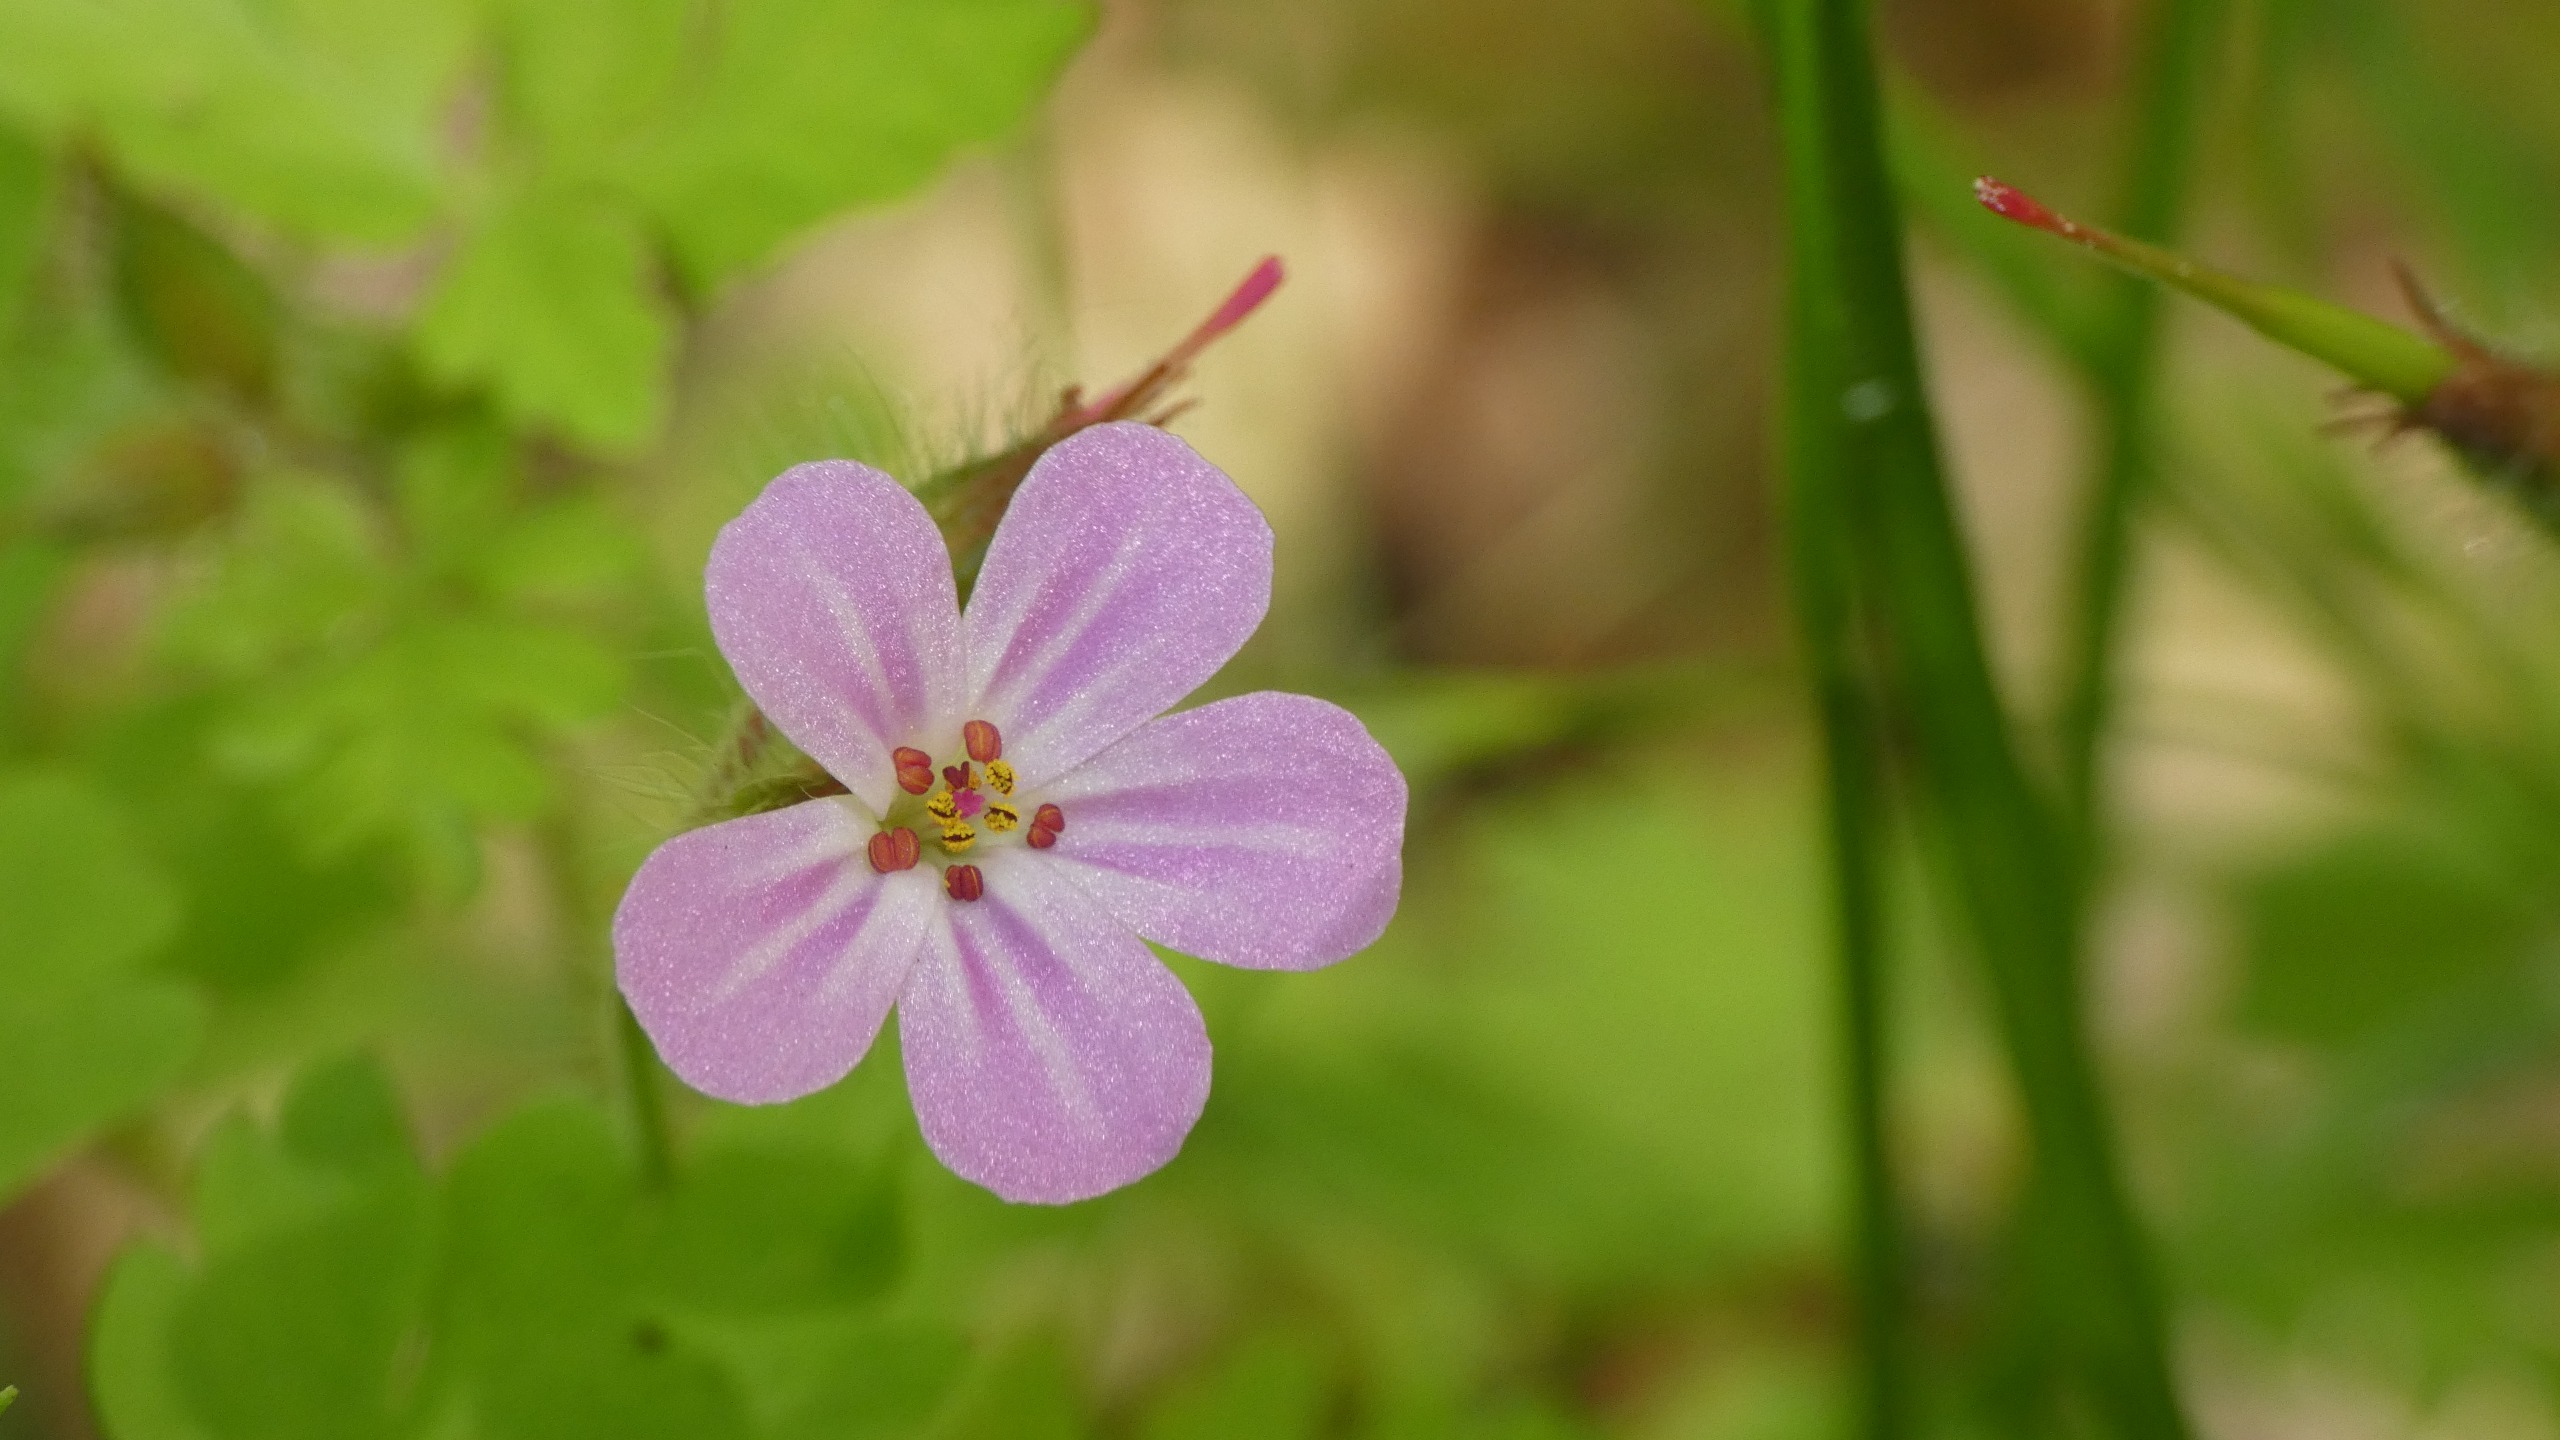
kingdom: Plantae
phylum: Tracheophyta
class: Magnoliopsida
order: Geraniales
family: Geraniaceae
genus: Geranium
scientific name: Geranium robertianum
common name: Stinkende storkenæb
